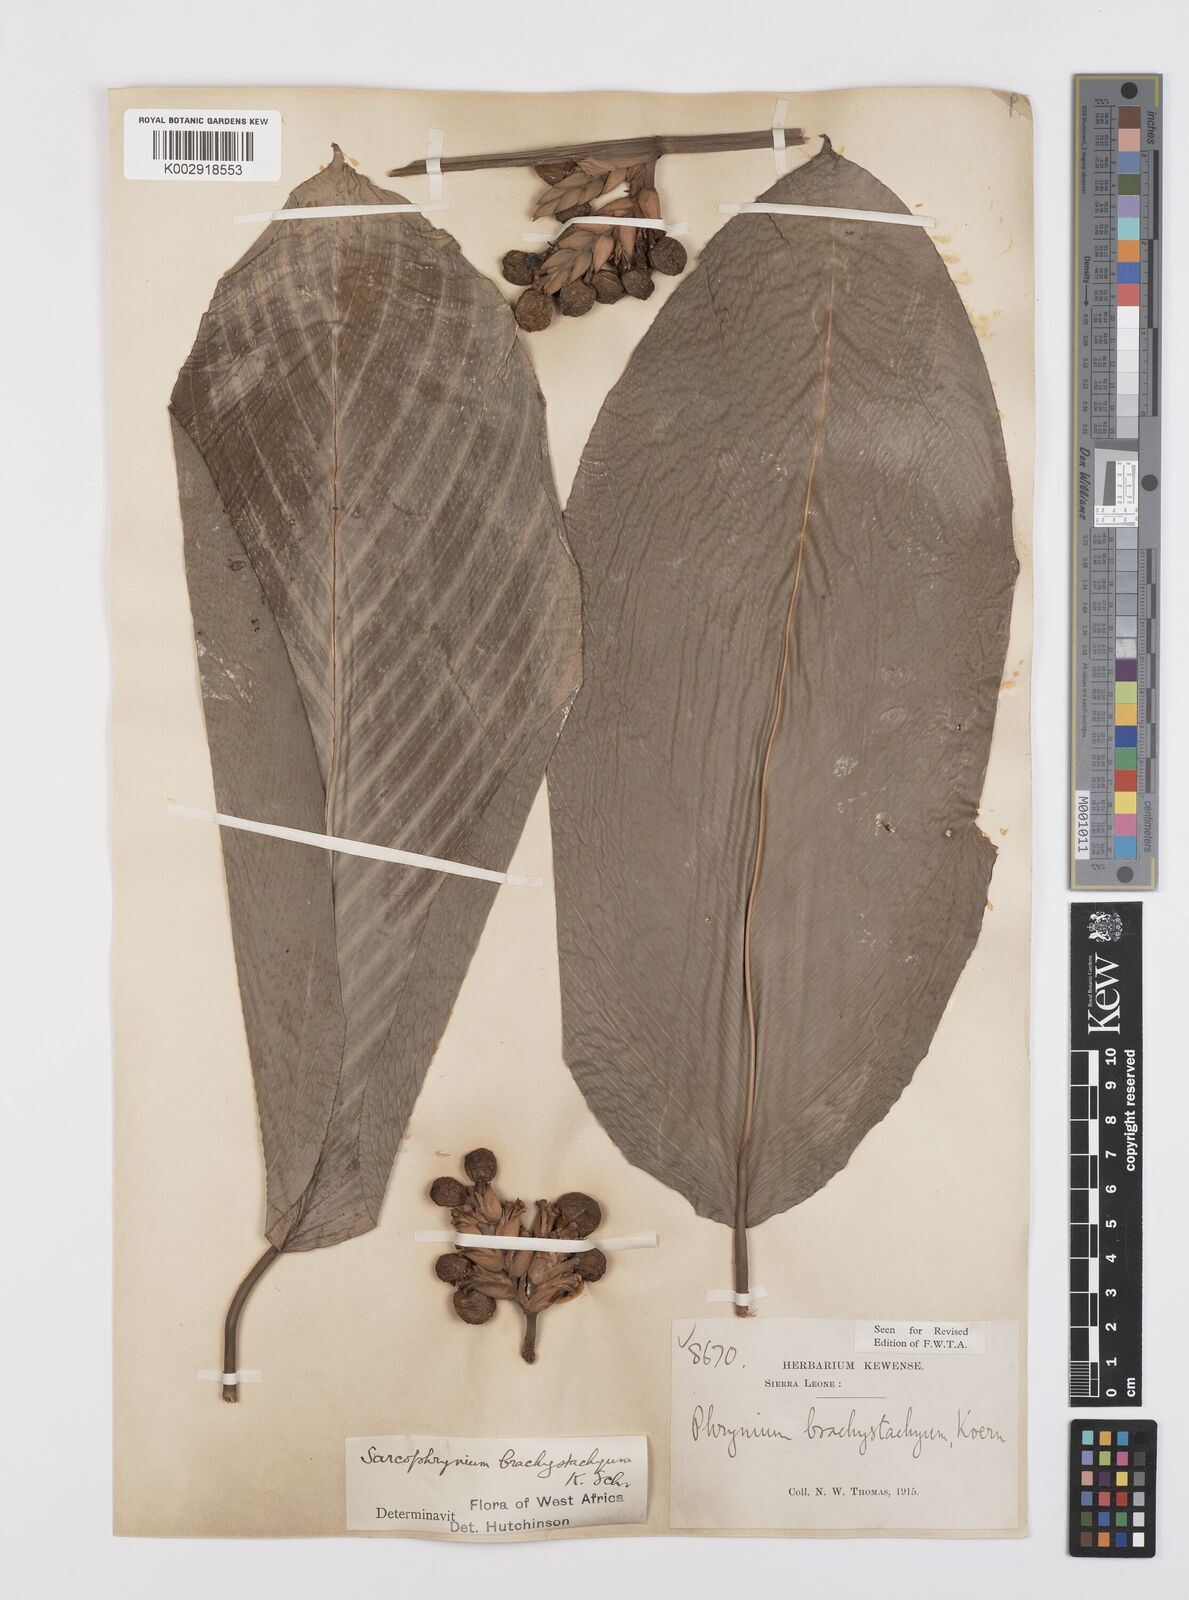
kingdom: Plantae
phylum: Tracheophyta
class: Liliopsida
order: Zingiberales
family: Marantaceae
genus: Sarcophrynium
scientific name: Sarcophrynium brachystachyum
